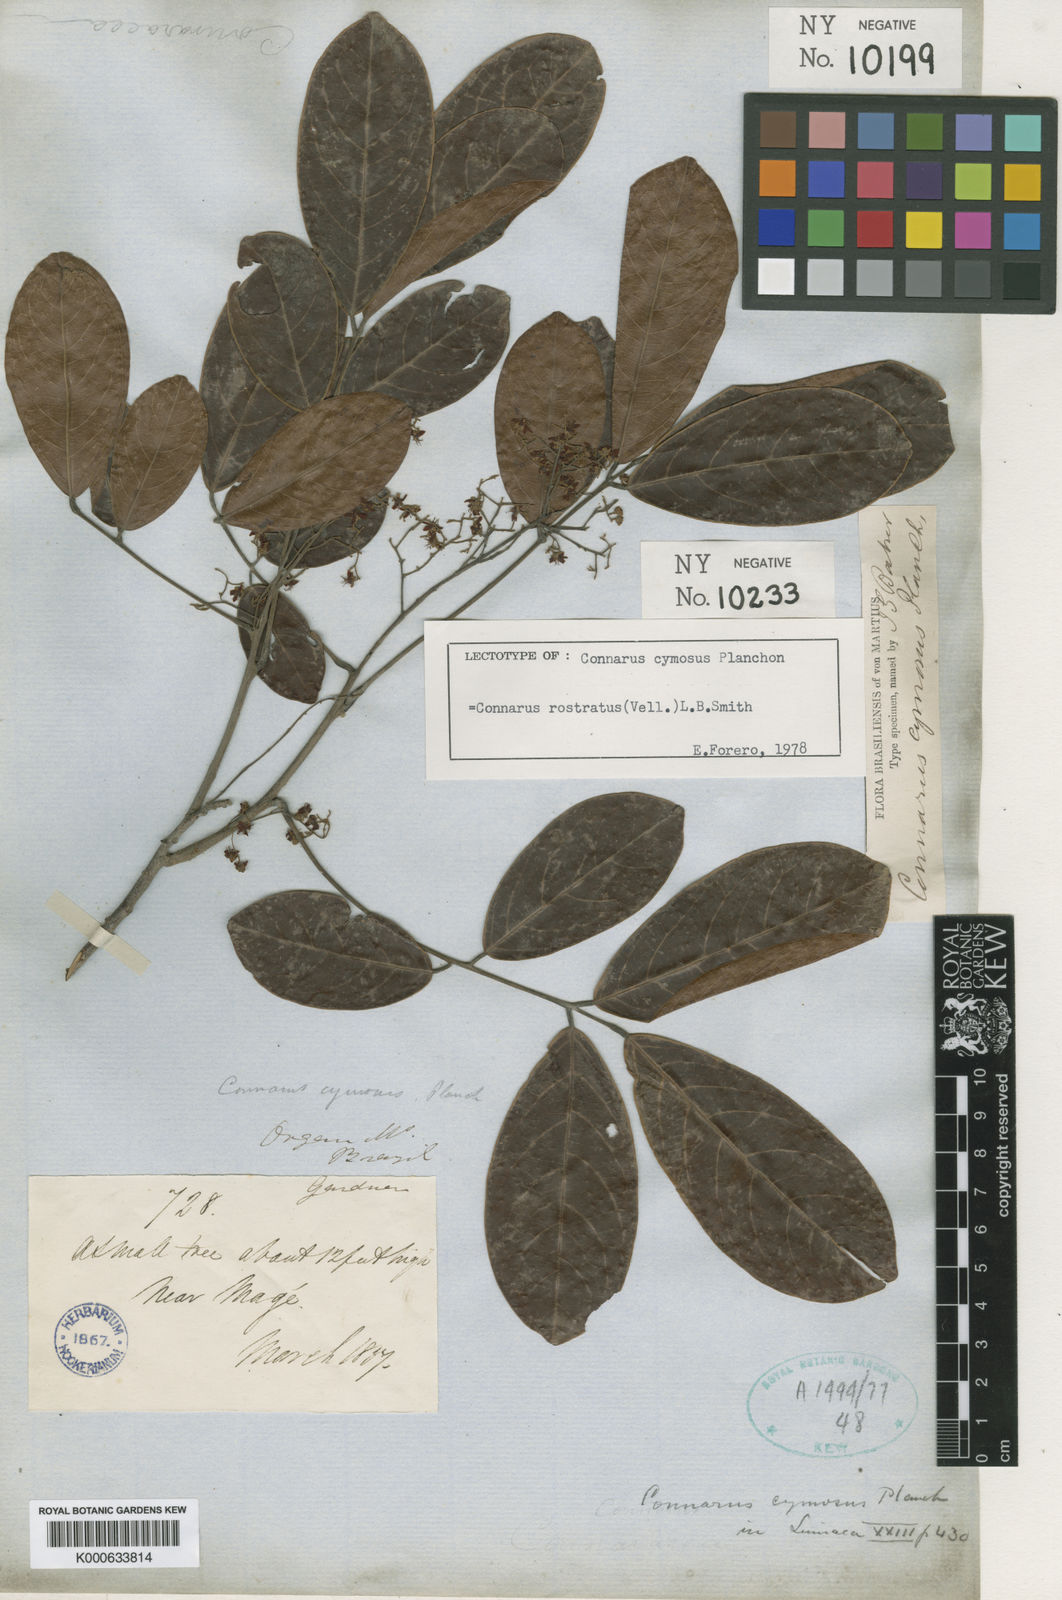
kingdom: Plantae
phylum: Tracheophyta
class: Magnoliopsida
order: Oxalidales
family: Connaraceae
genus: Connarus
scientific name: Connarus rostratus
